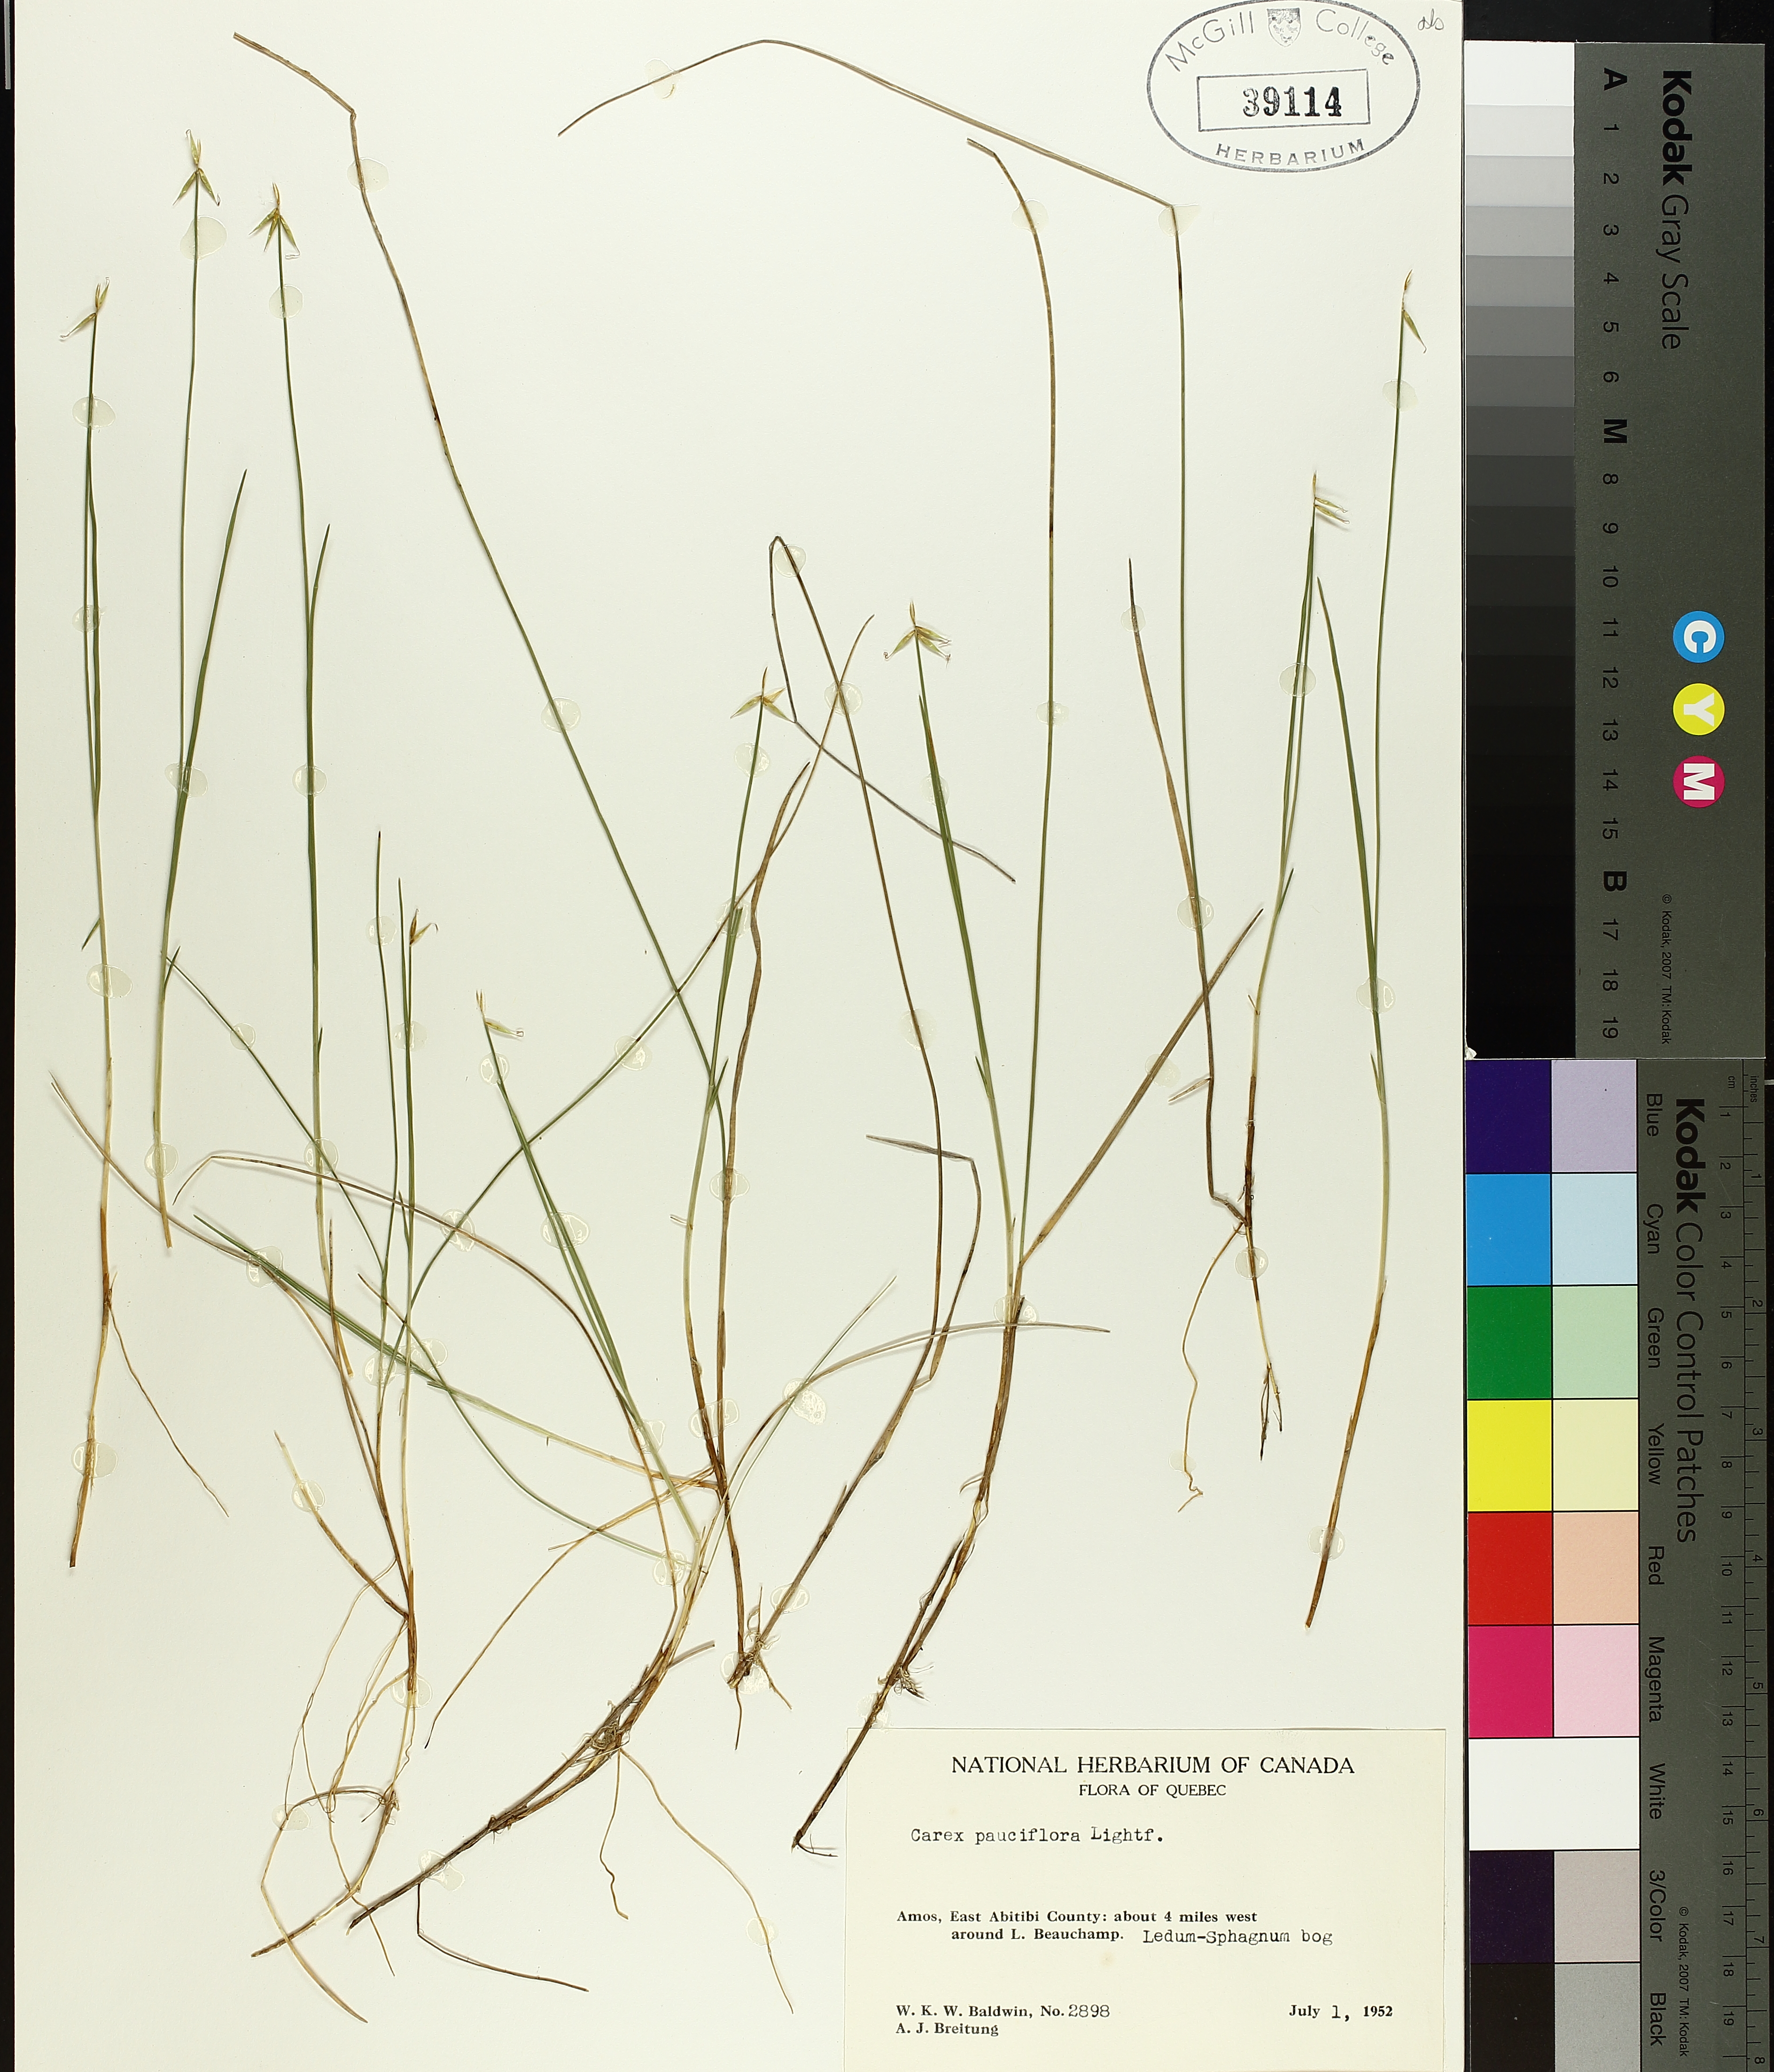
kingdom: Plantae
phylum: Tracheophyta
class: Liliopsida
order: Poales
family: Cyperaceae
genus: Carex
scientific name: Carex pauciflora
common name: Few-flowered sedge
